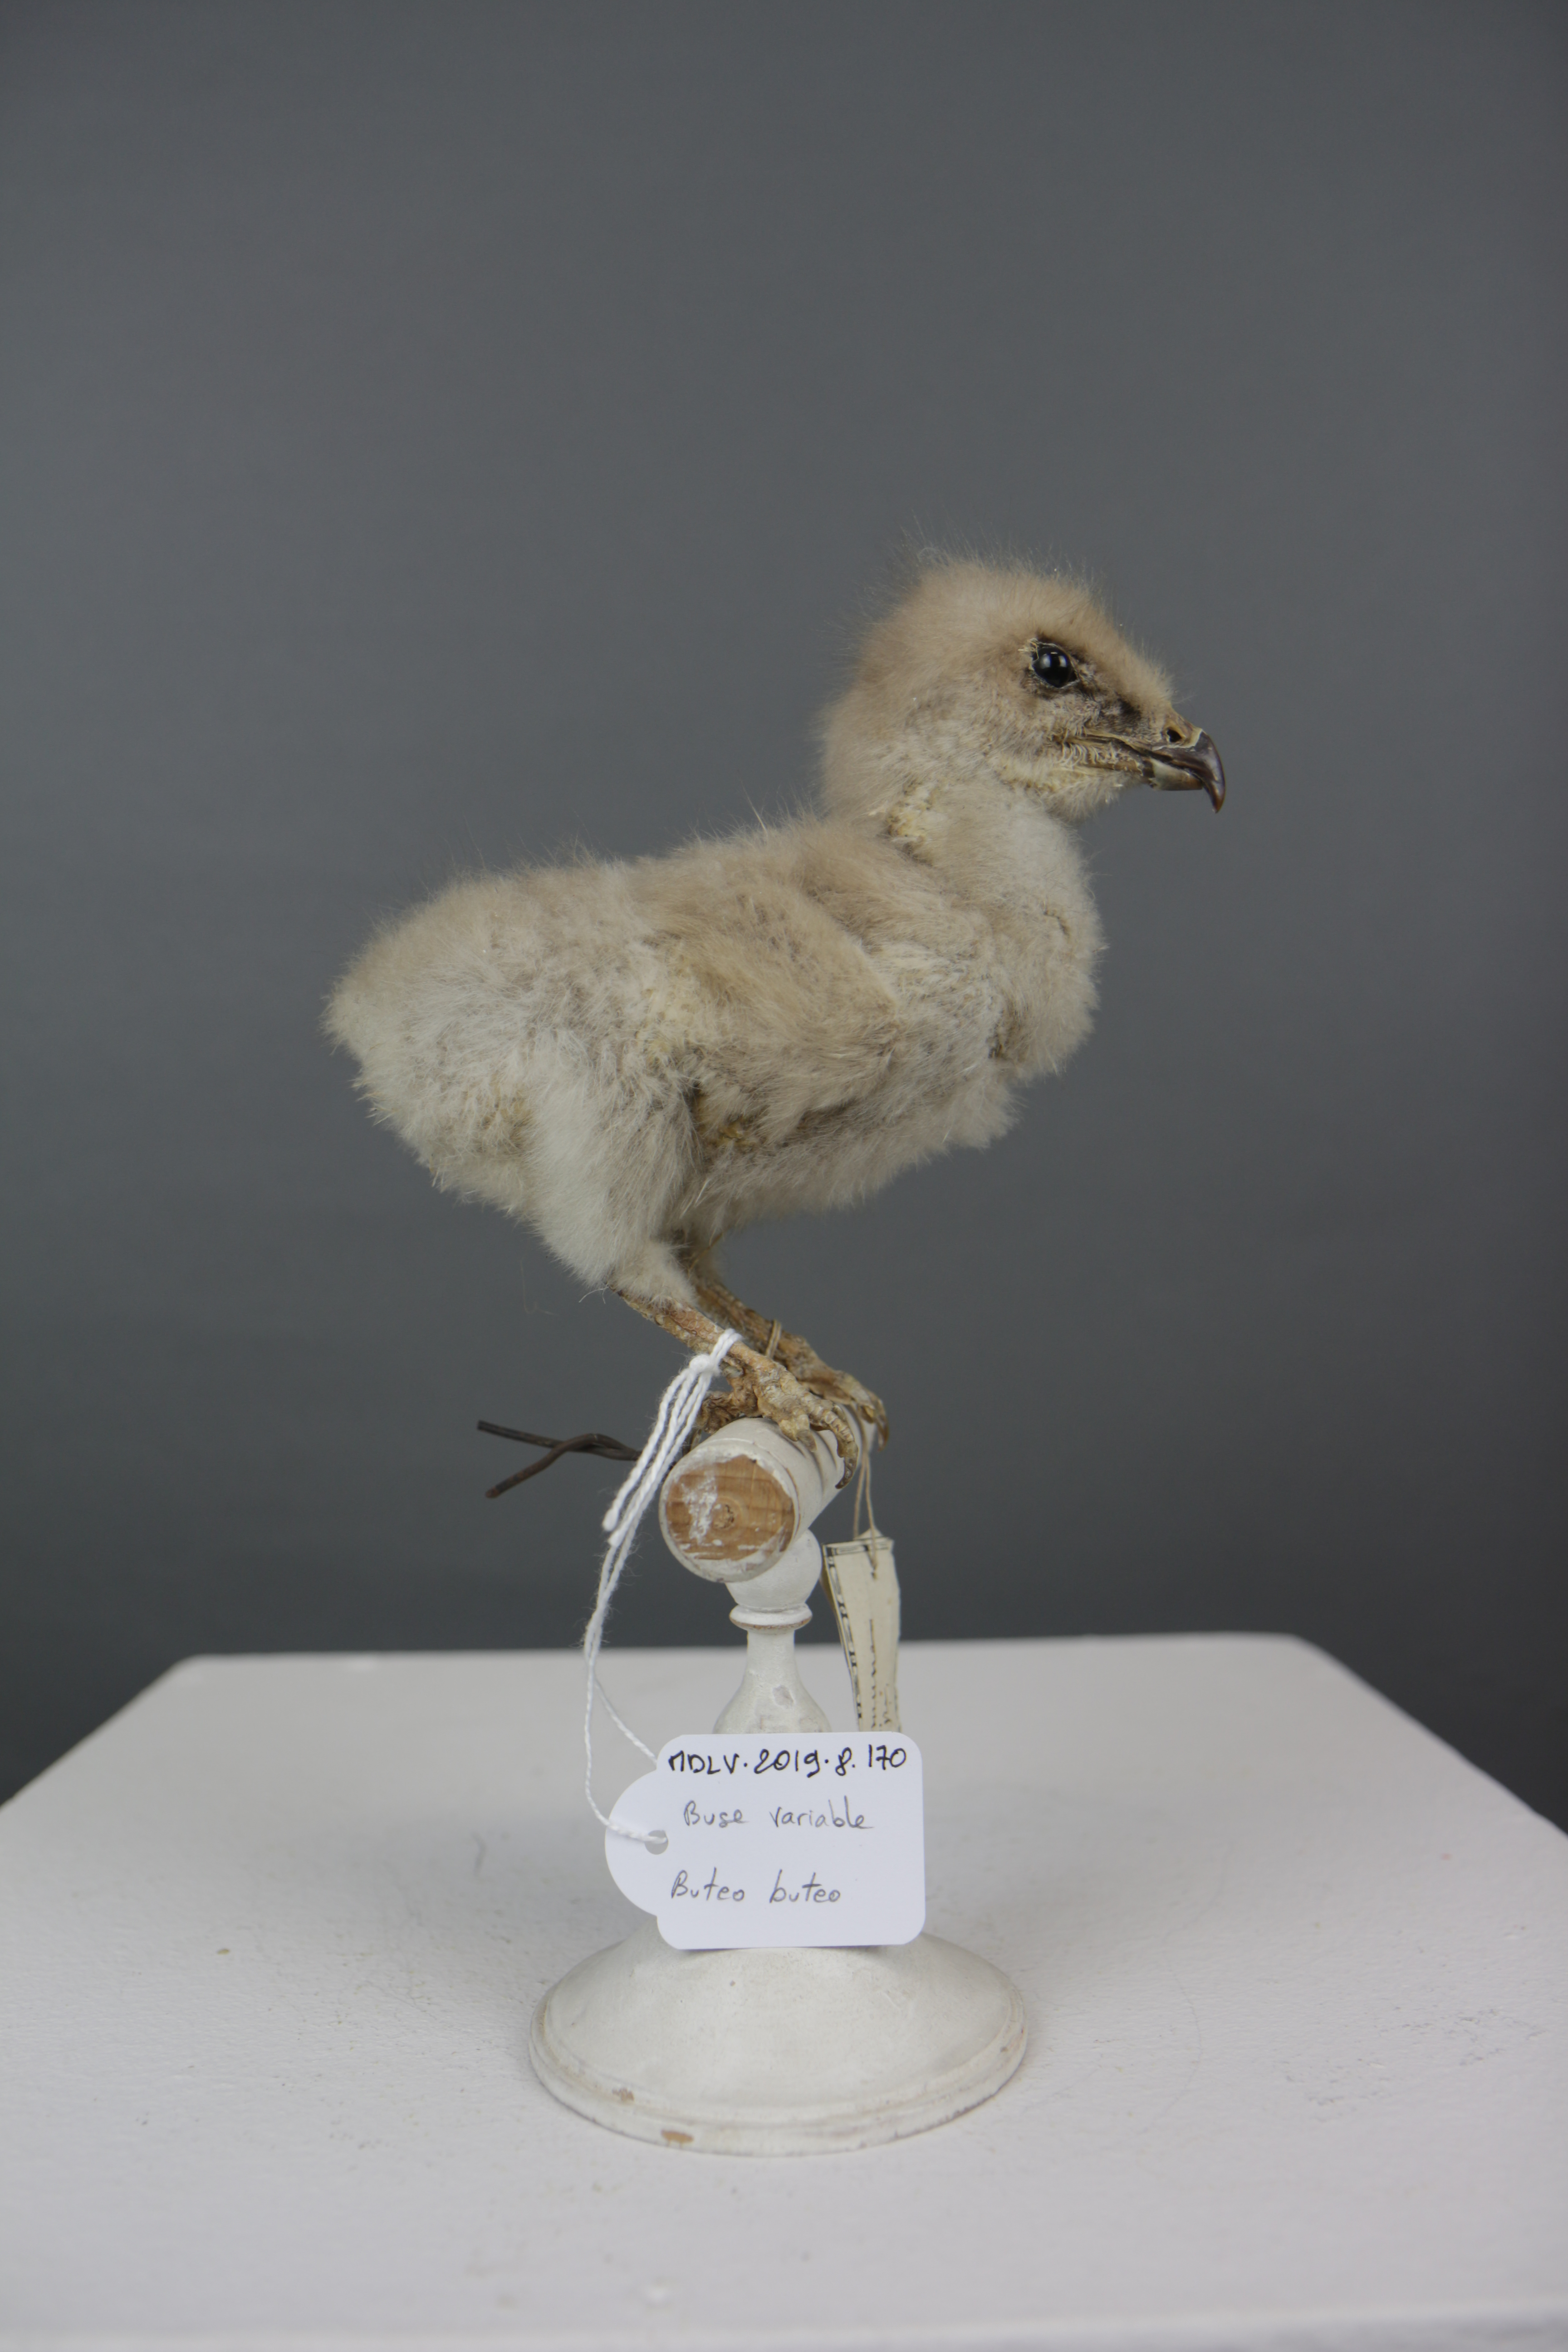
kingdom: Animalia
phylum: Chordata
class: Aves
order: Accipitriformes
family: Accipitridae
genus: Buteo
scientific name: Buteo buteo
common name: Common buzzard
